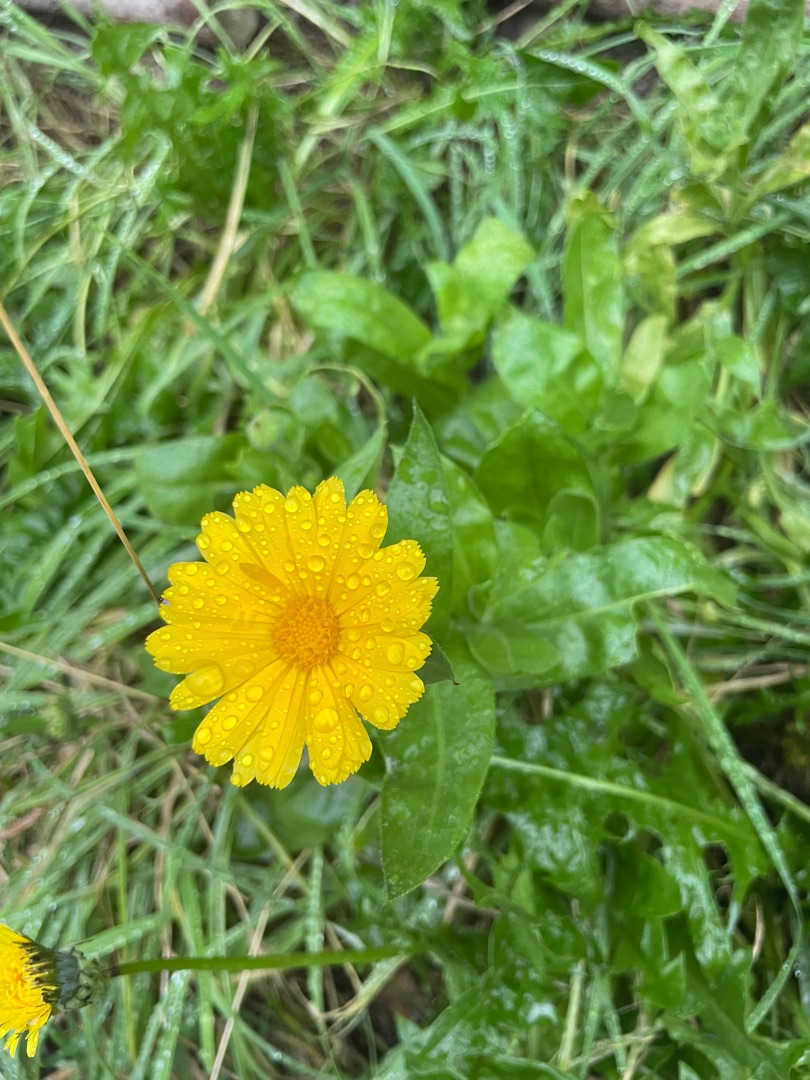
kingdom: Plantae
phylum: Tracheophyta
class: Magnoliopsida
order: Asterales
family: Asteraceae
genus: Calendula
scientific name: Calendula officinalis
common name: Have-morgenfrue
